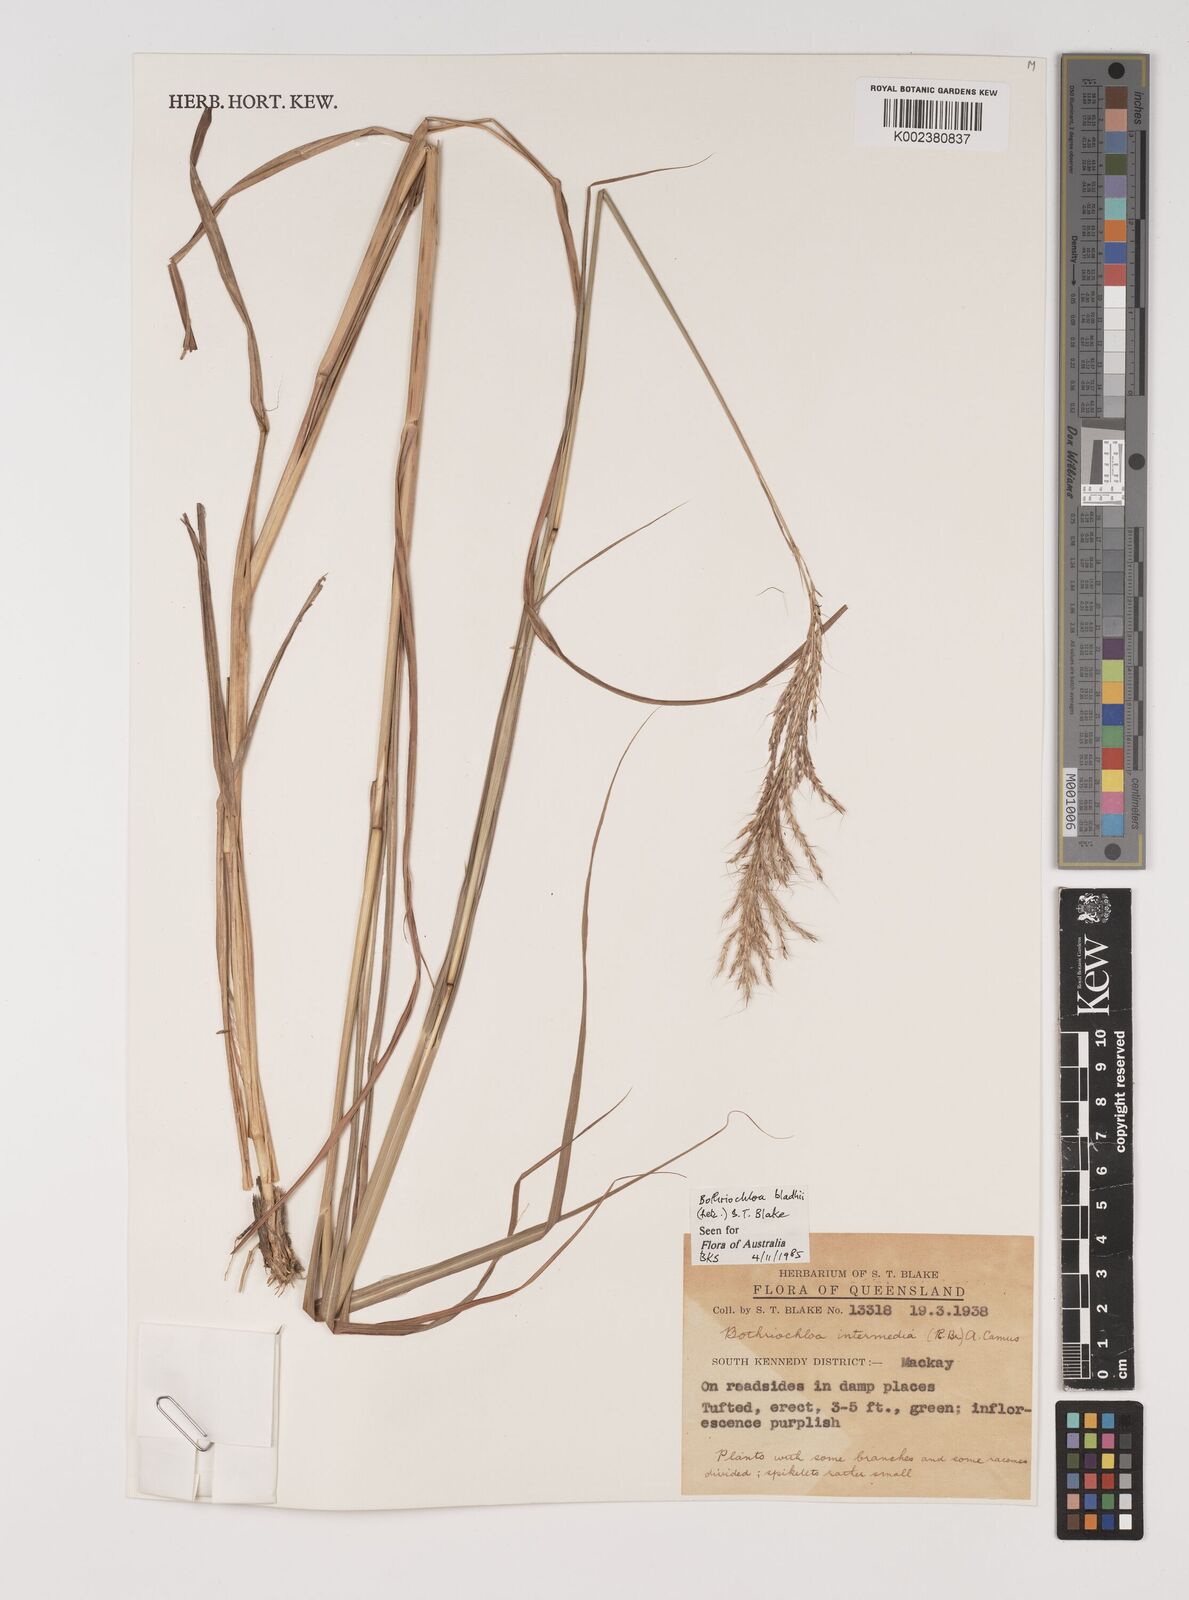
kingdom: Plantae
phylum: Tracheophyta
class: Liliopsida
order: Poales
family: Poaceae
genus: Bothriochloa
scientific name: Bothriochloa bladhii
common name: Caucasian bluestem
